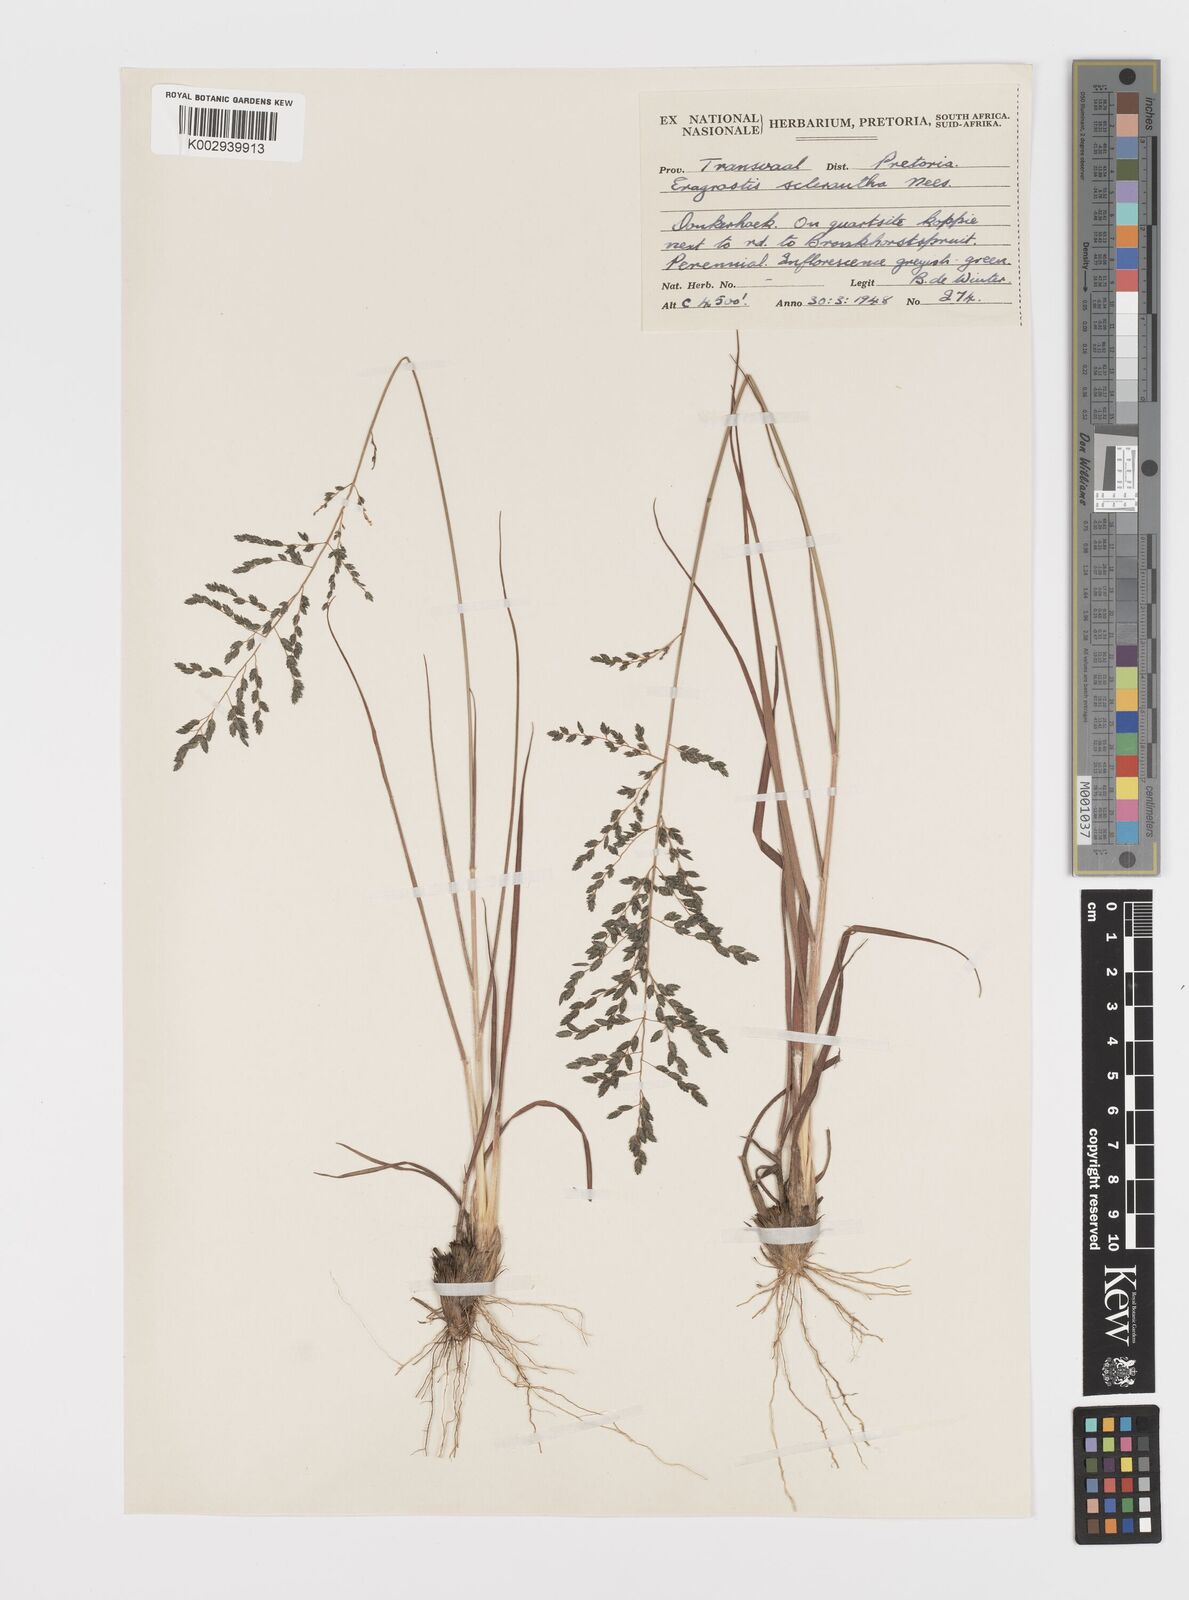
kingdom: Plantae
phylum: Tracheophyta
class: Liliopsida
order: Poales
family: Poaceae
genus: Eragrostis
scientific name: Eragrostis sclerantha
